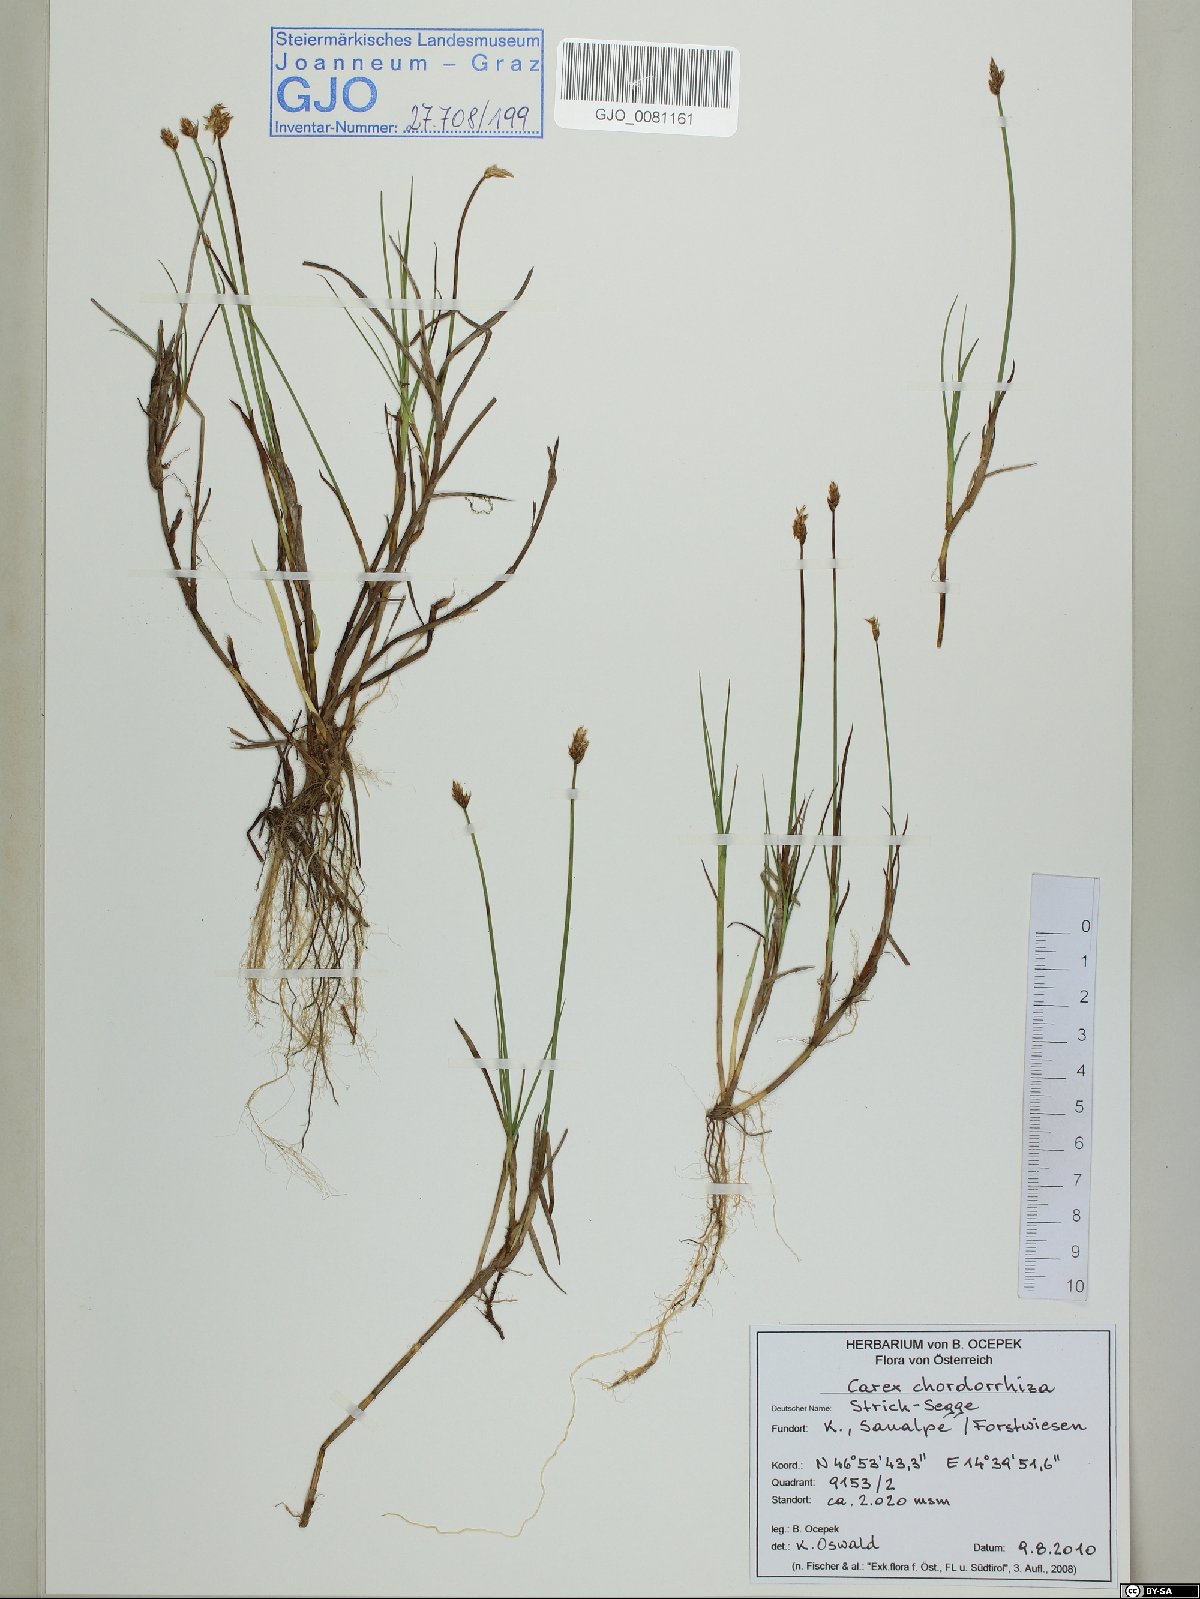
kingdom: Plantae
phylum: Tracheophyta
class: Liliopsida
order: Poales
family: Cyperaceae
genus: Carex
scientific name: Carex chordorrhiza
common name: String sedge
